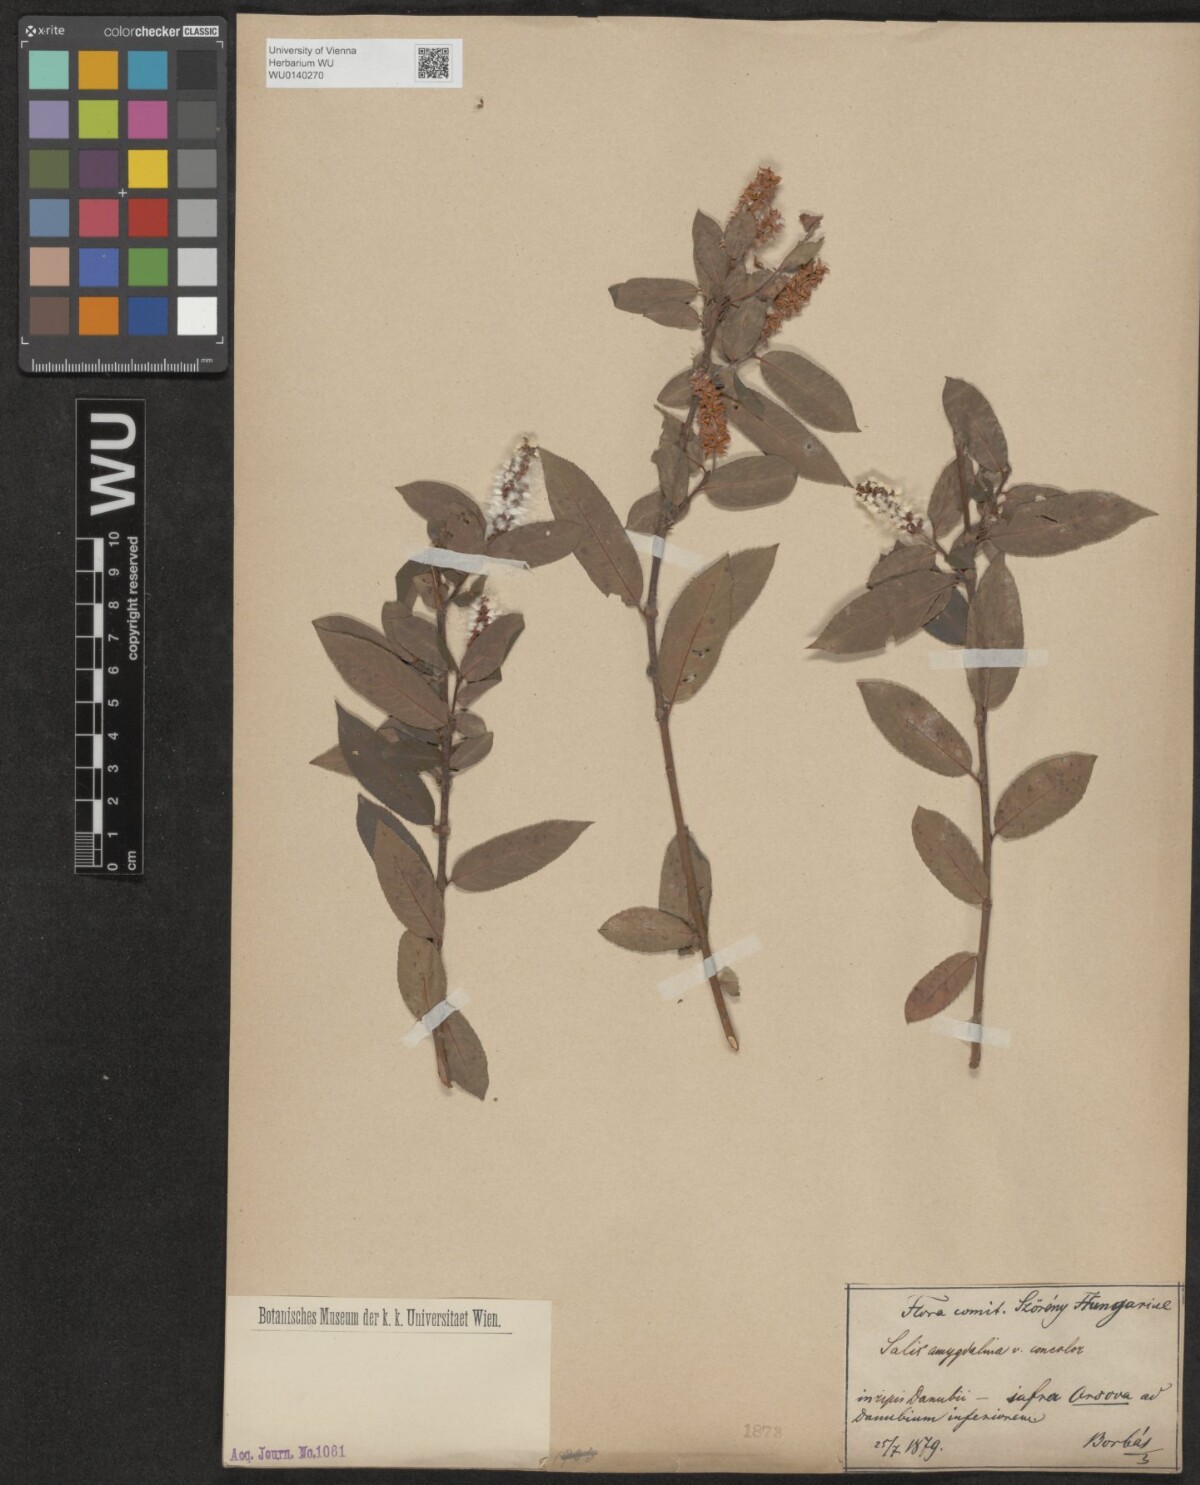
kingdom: Plantae
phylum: Tracheophyta
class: Magnoliopsida
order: Malpighiales
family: Salicaceae
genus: Salix
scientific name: Salix triandra
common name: Almond willow
